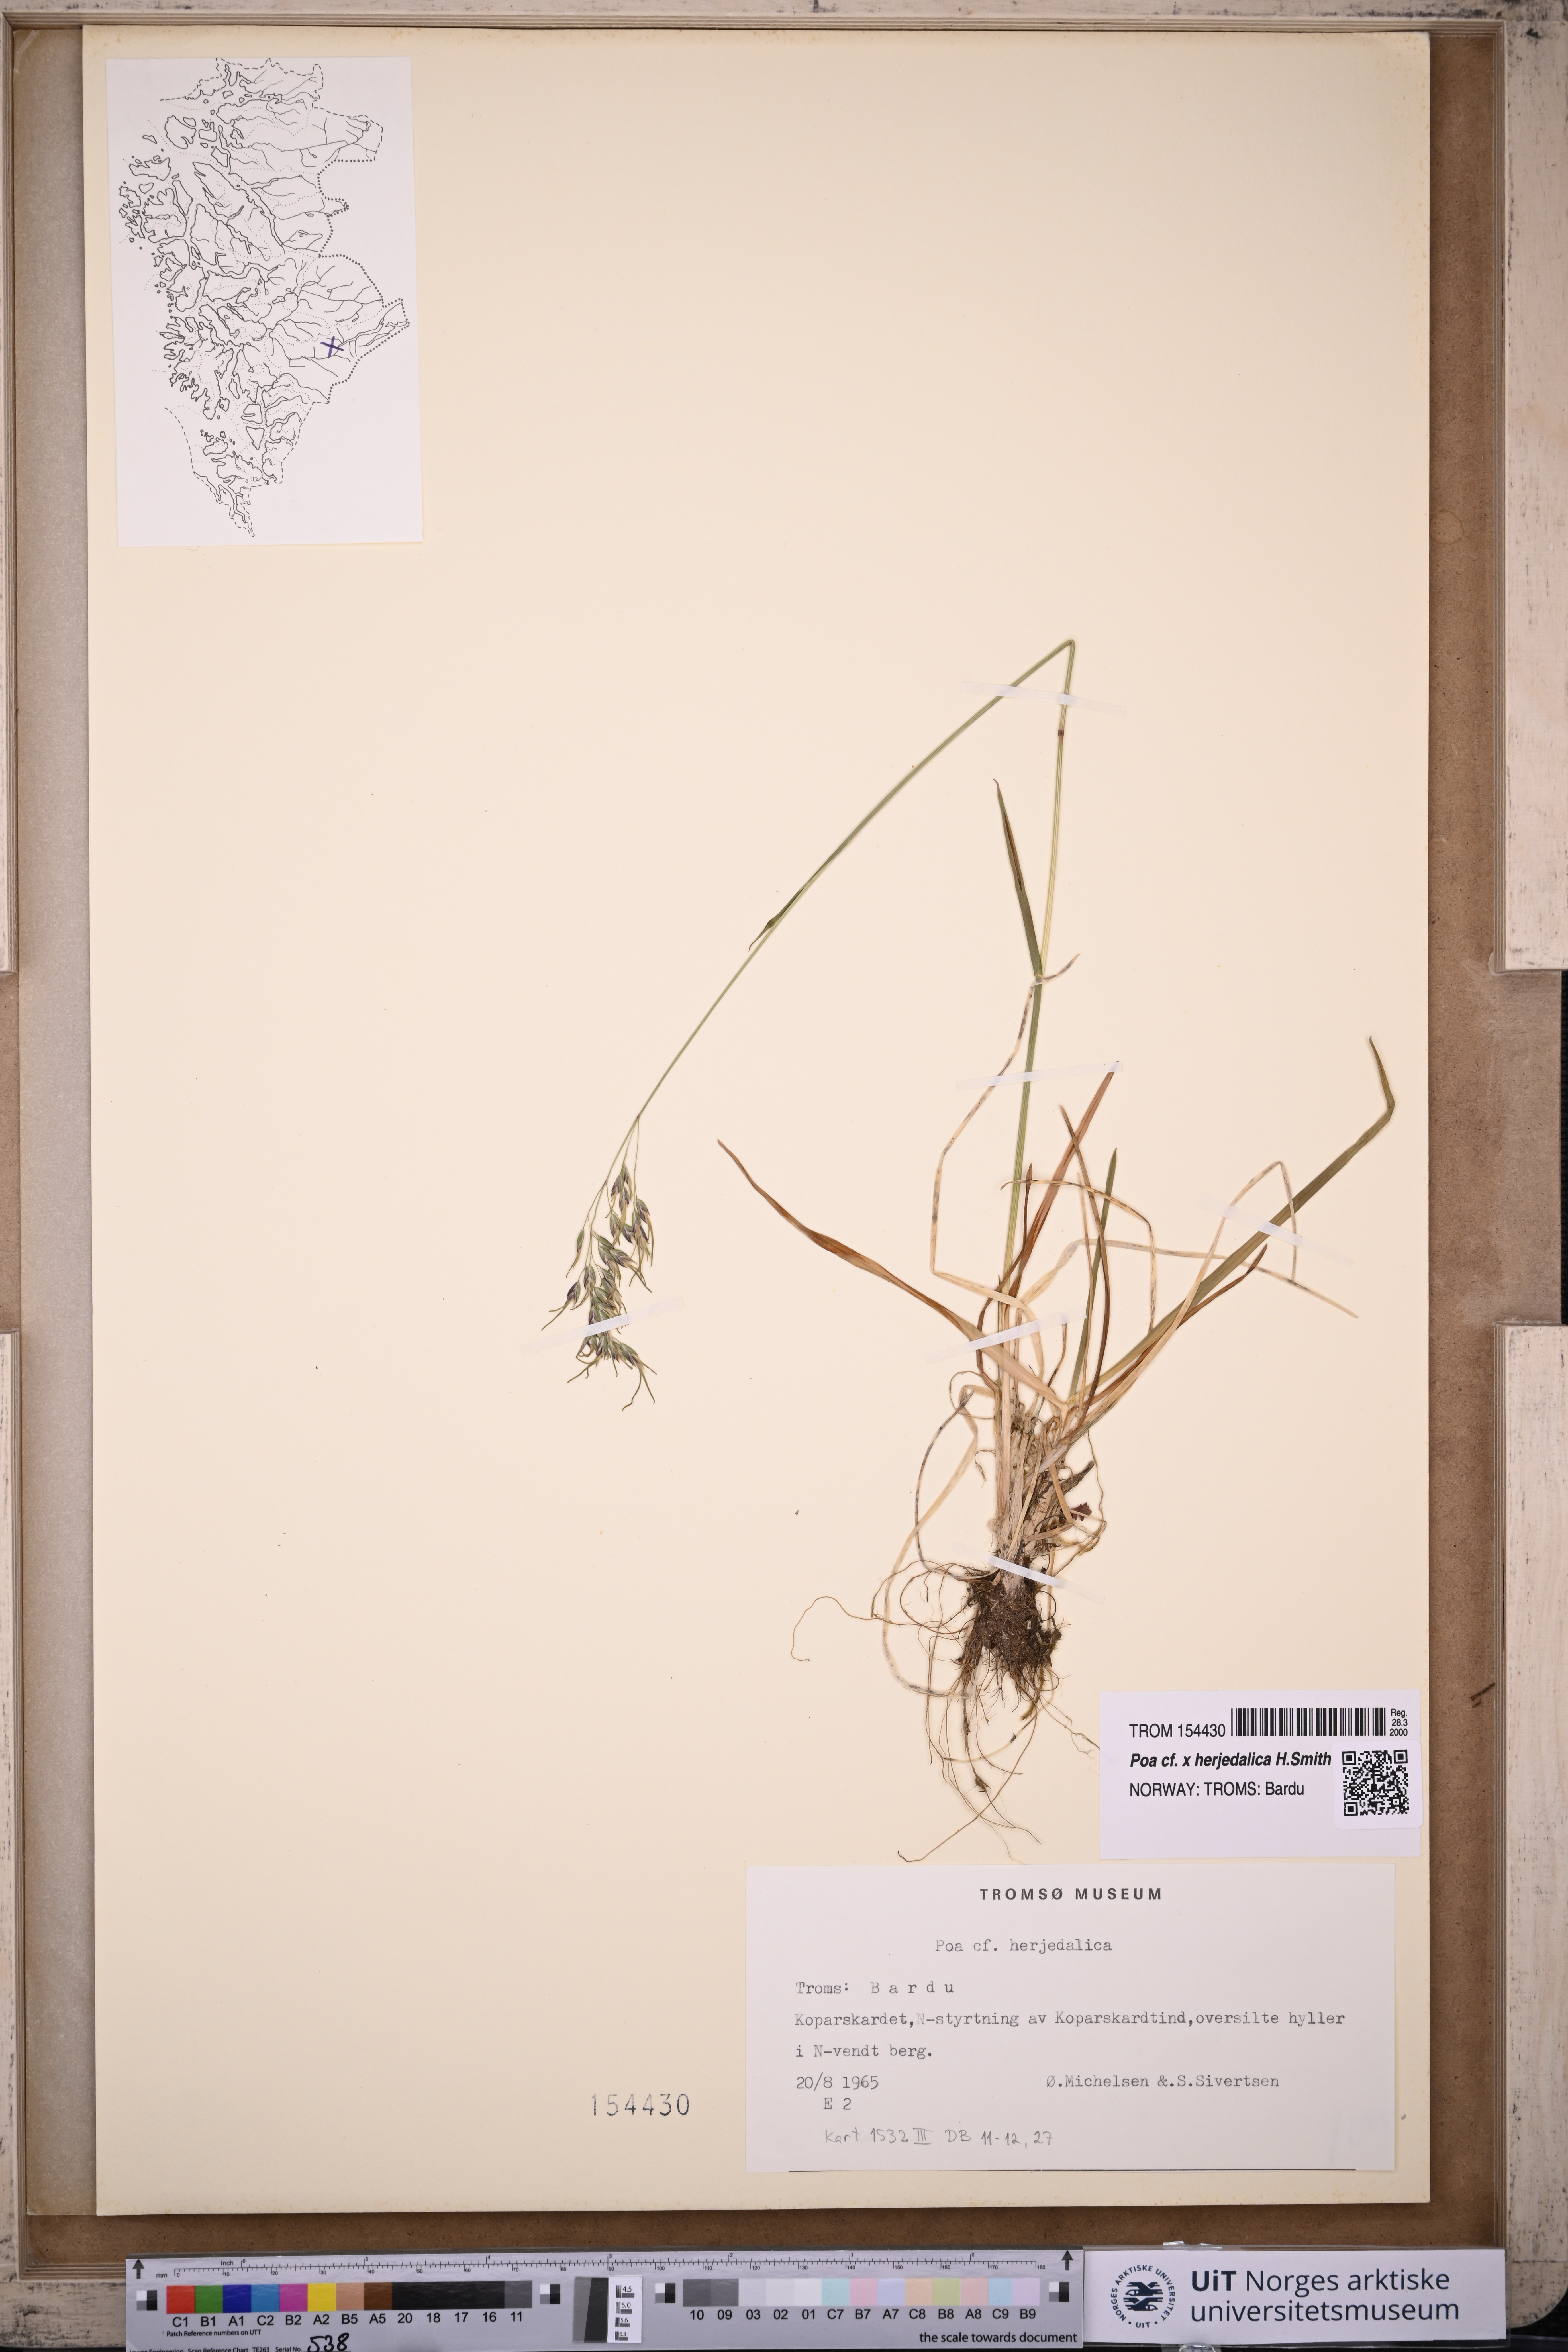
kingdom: Plantae
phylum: Tracheophyta
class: Liliopsida
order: Poales
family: Poaceae
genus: Poa
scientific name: Poa herjedalica
